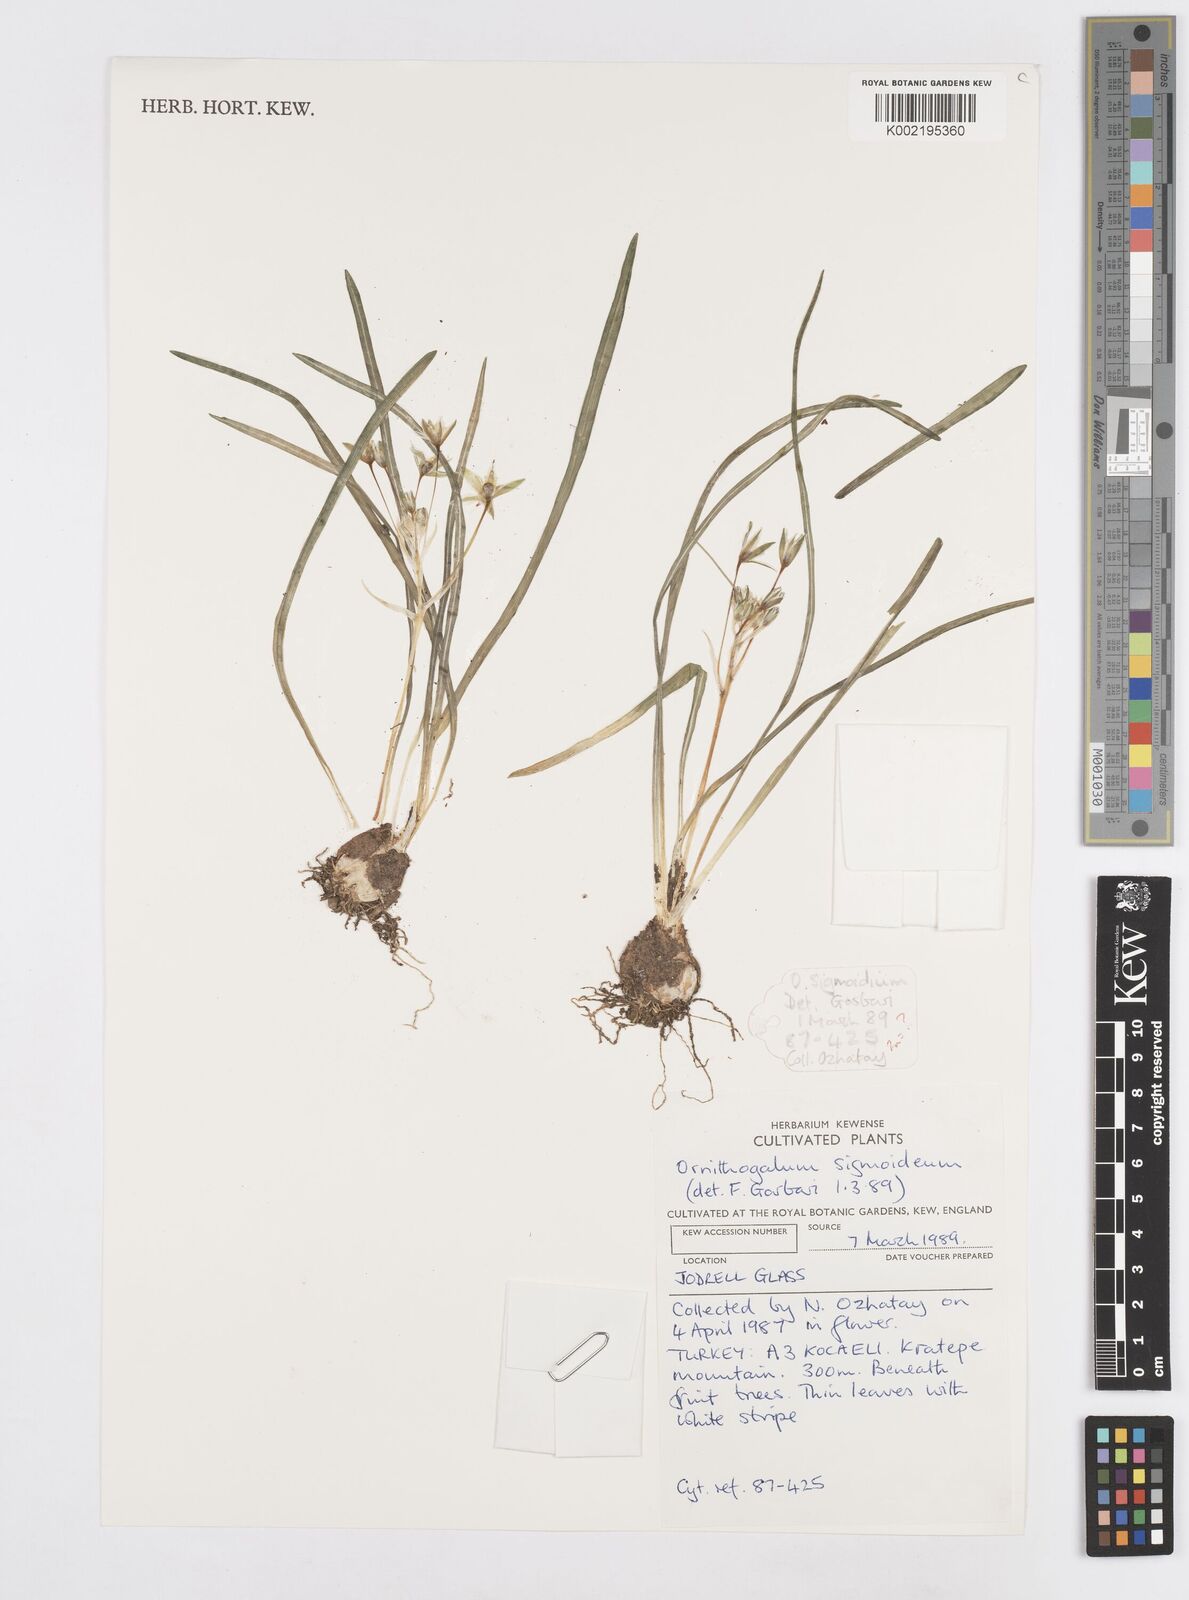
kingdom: Plantae
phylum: Tracheophyta
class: Liliopsida
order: Asparagales
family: Asparagaceae
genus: Ornithogalum
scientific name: Ornithogalum sigmoideum
